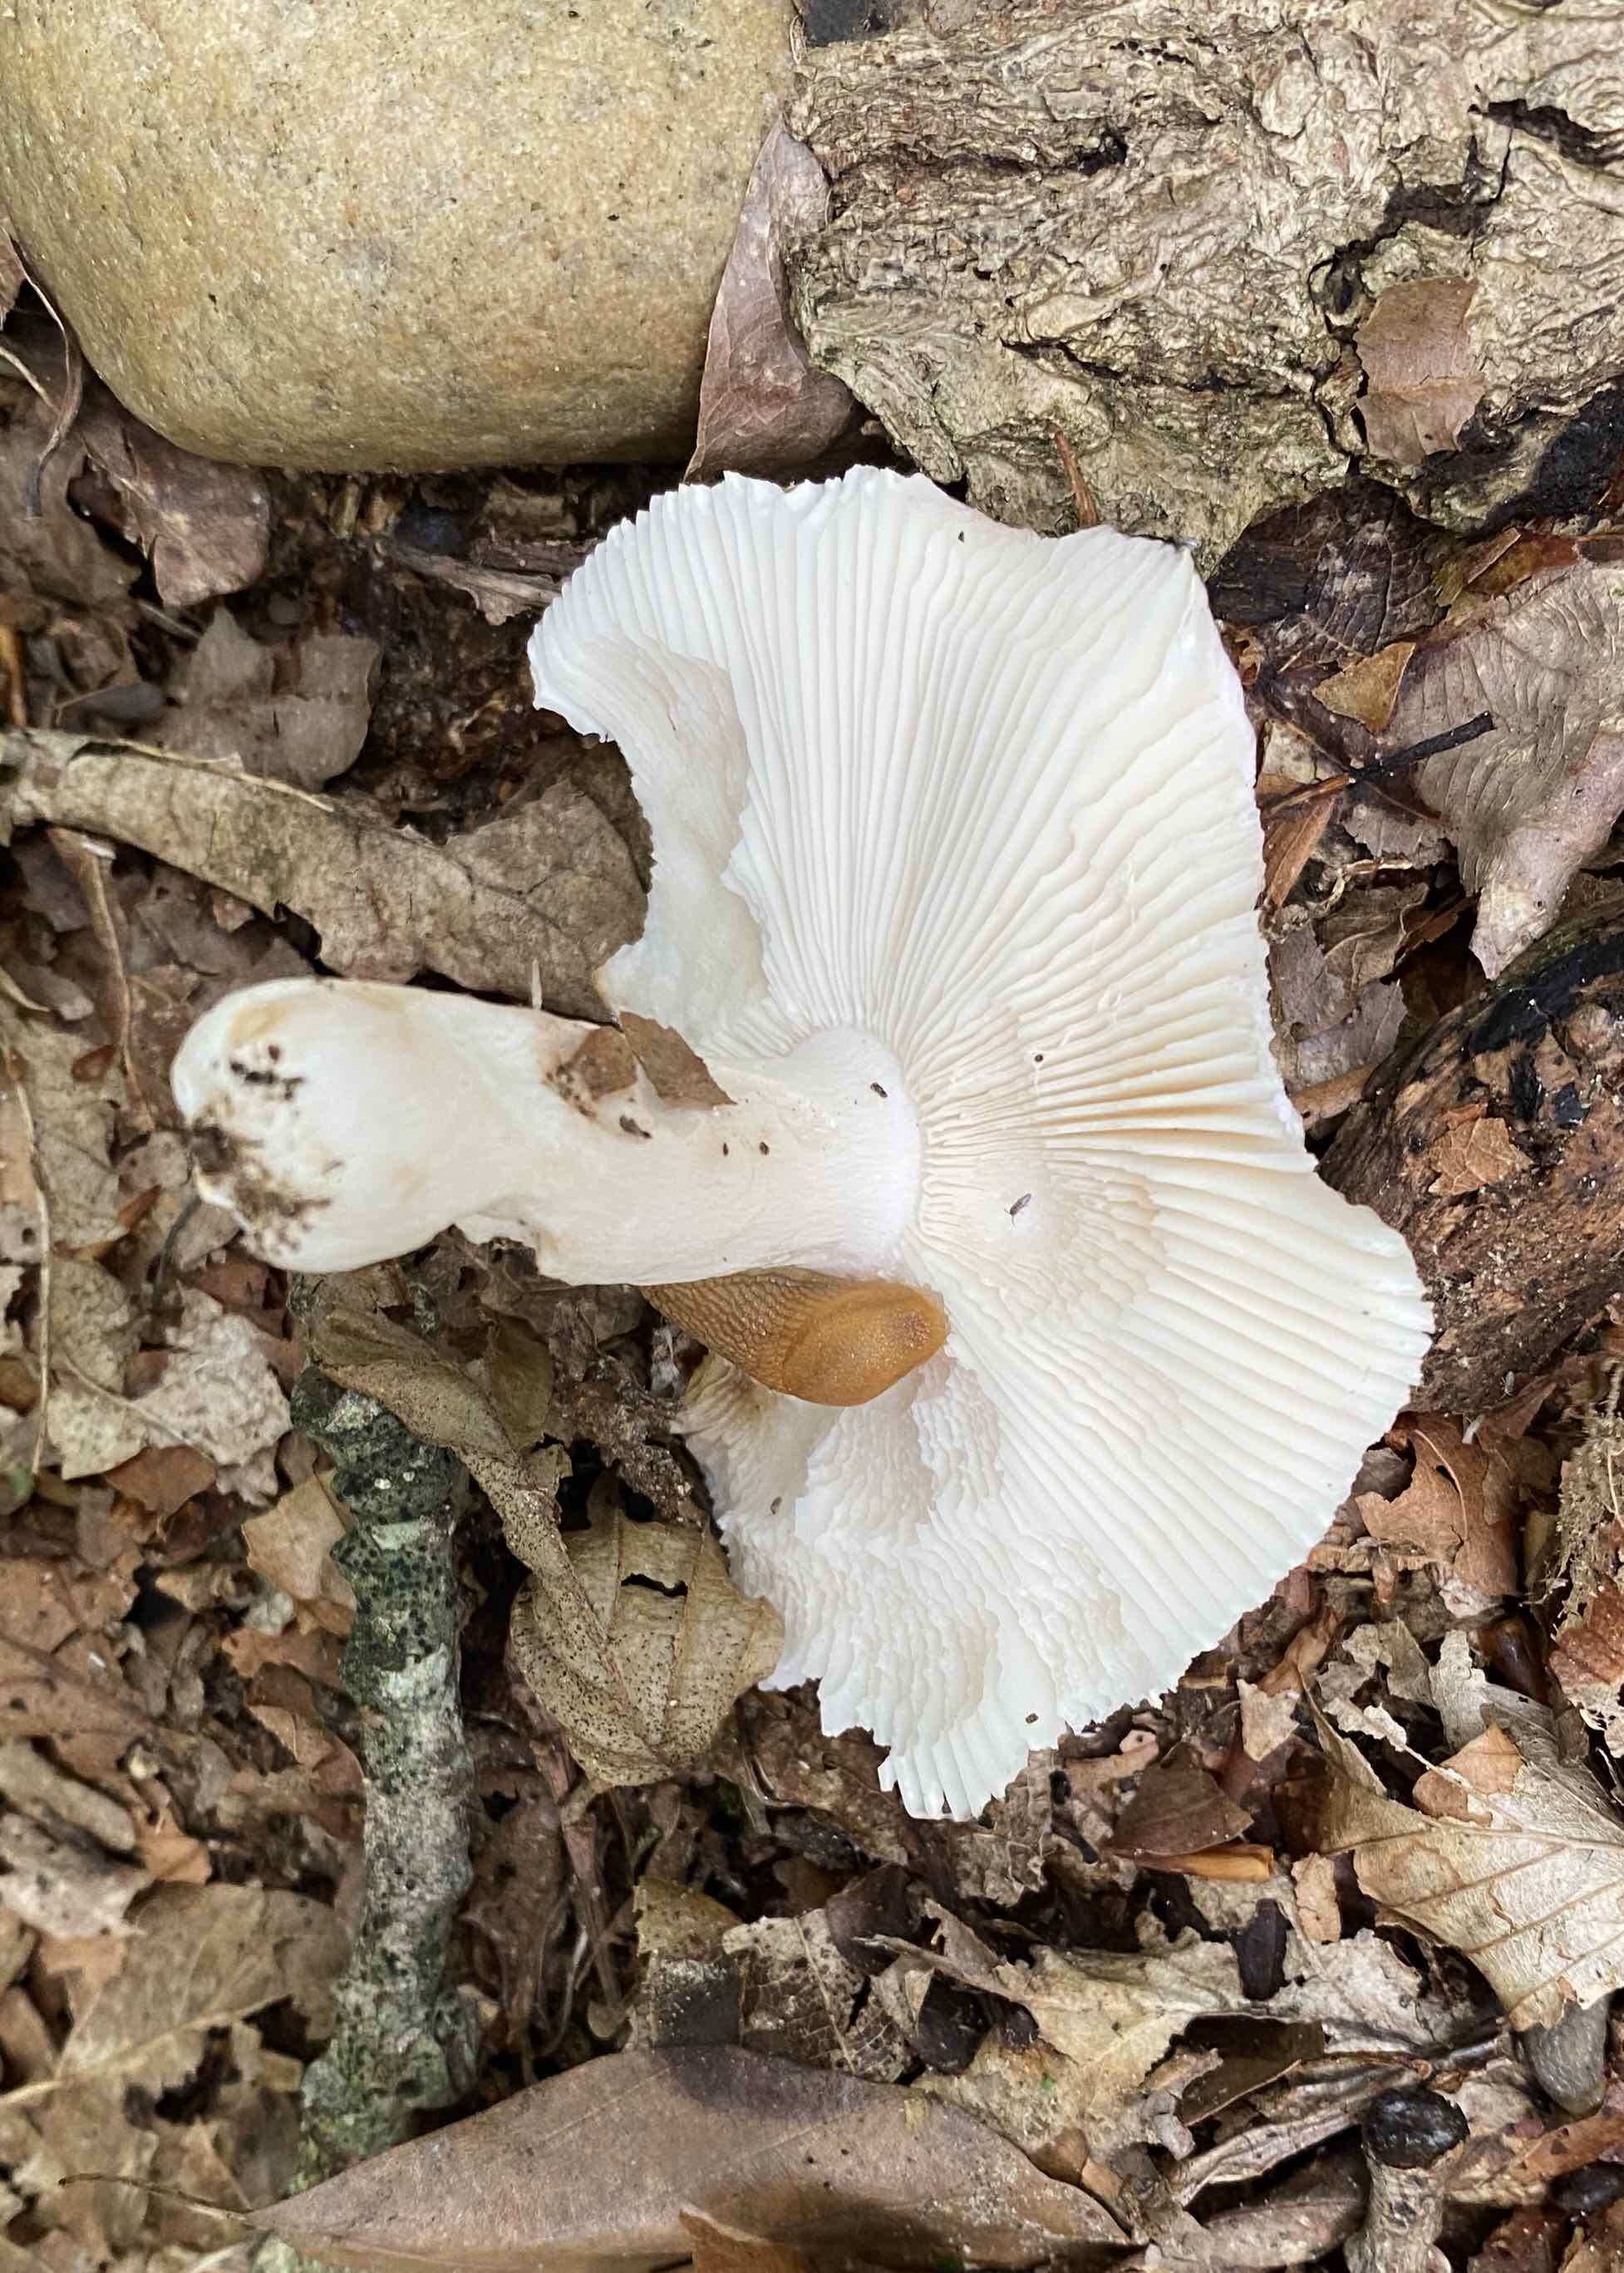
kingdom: Fungi
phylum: Basidiomycota
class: Agaricomycetes
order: Russulales
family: Russulaceae
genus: Russula
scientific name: Russula
